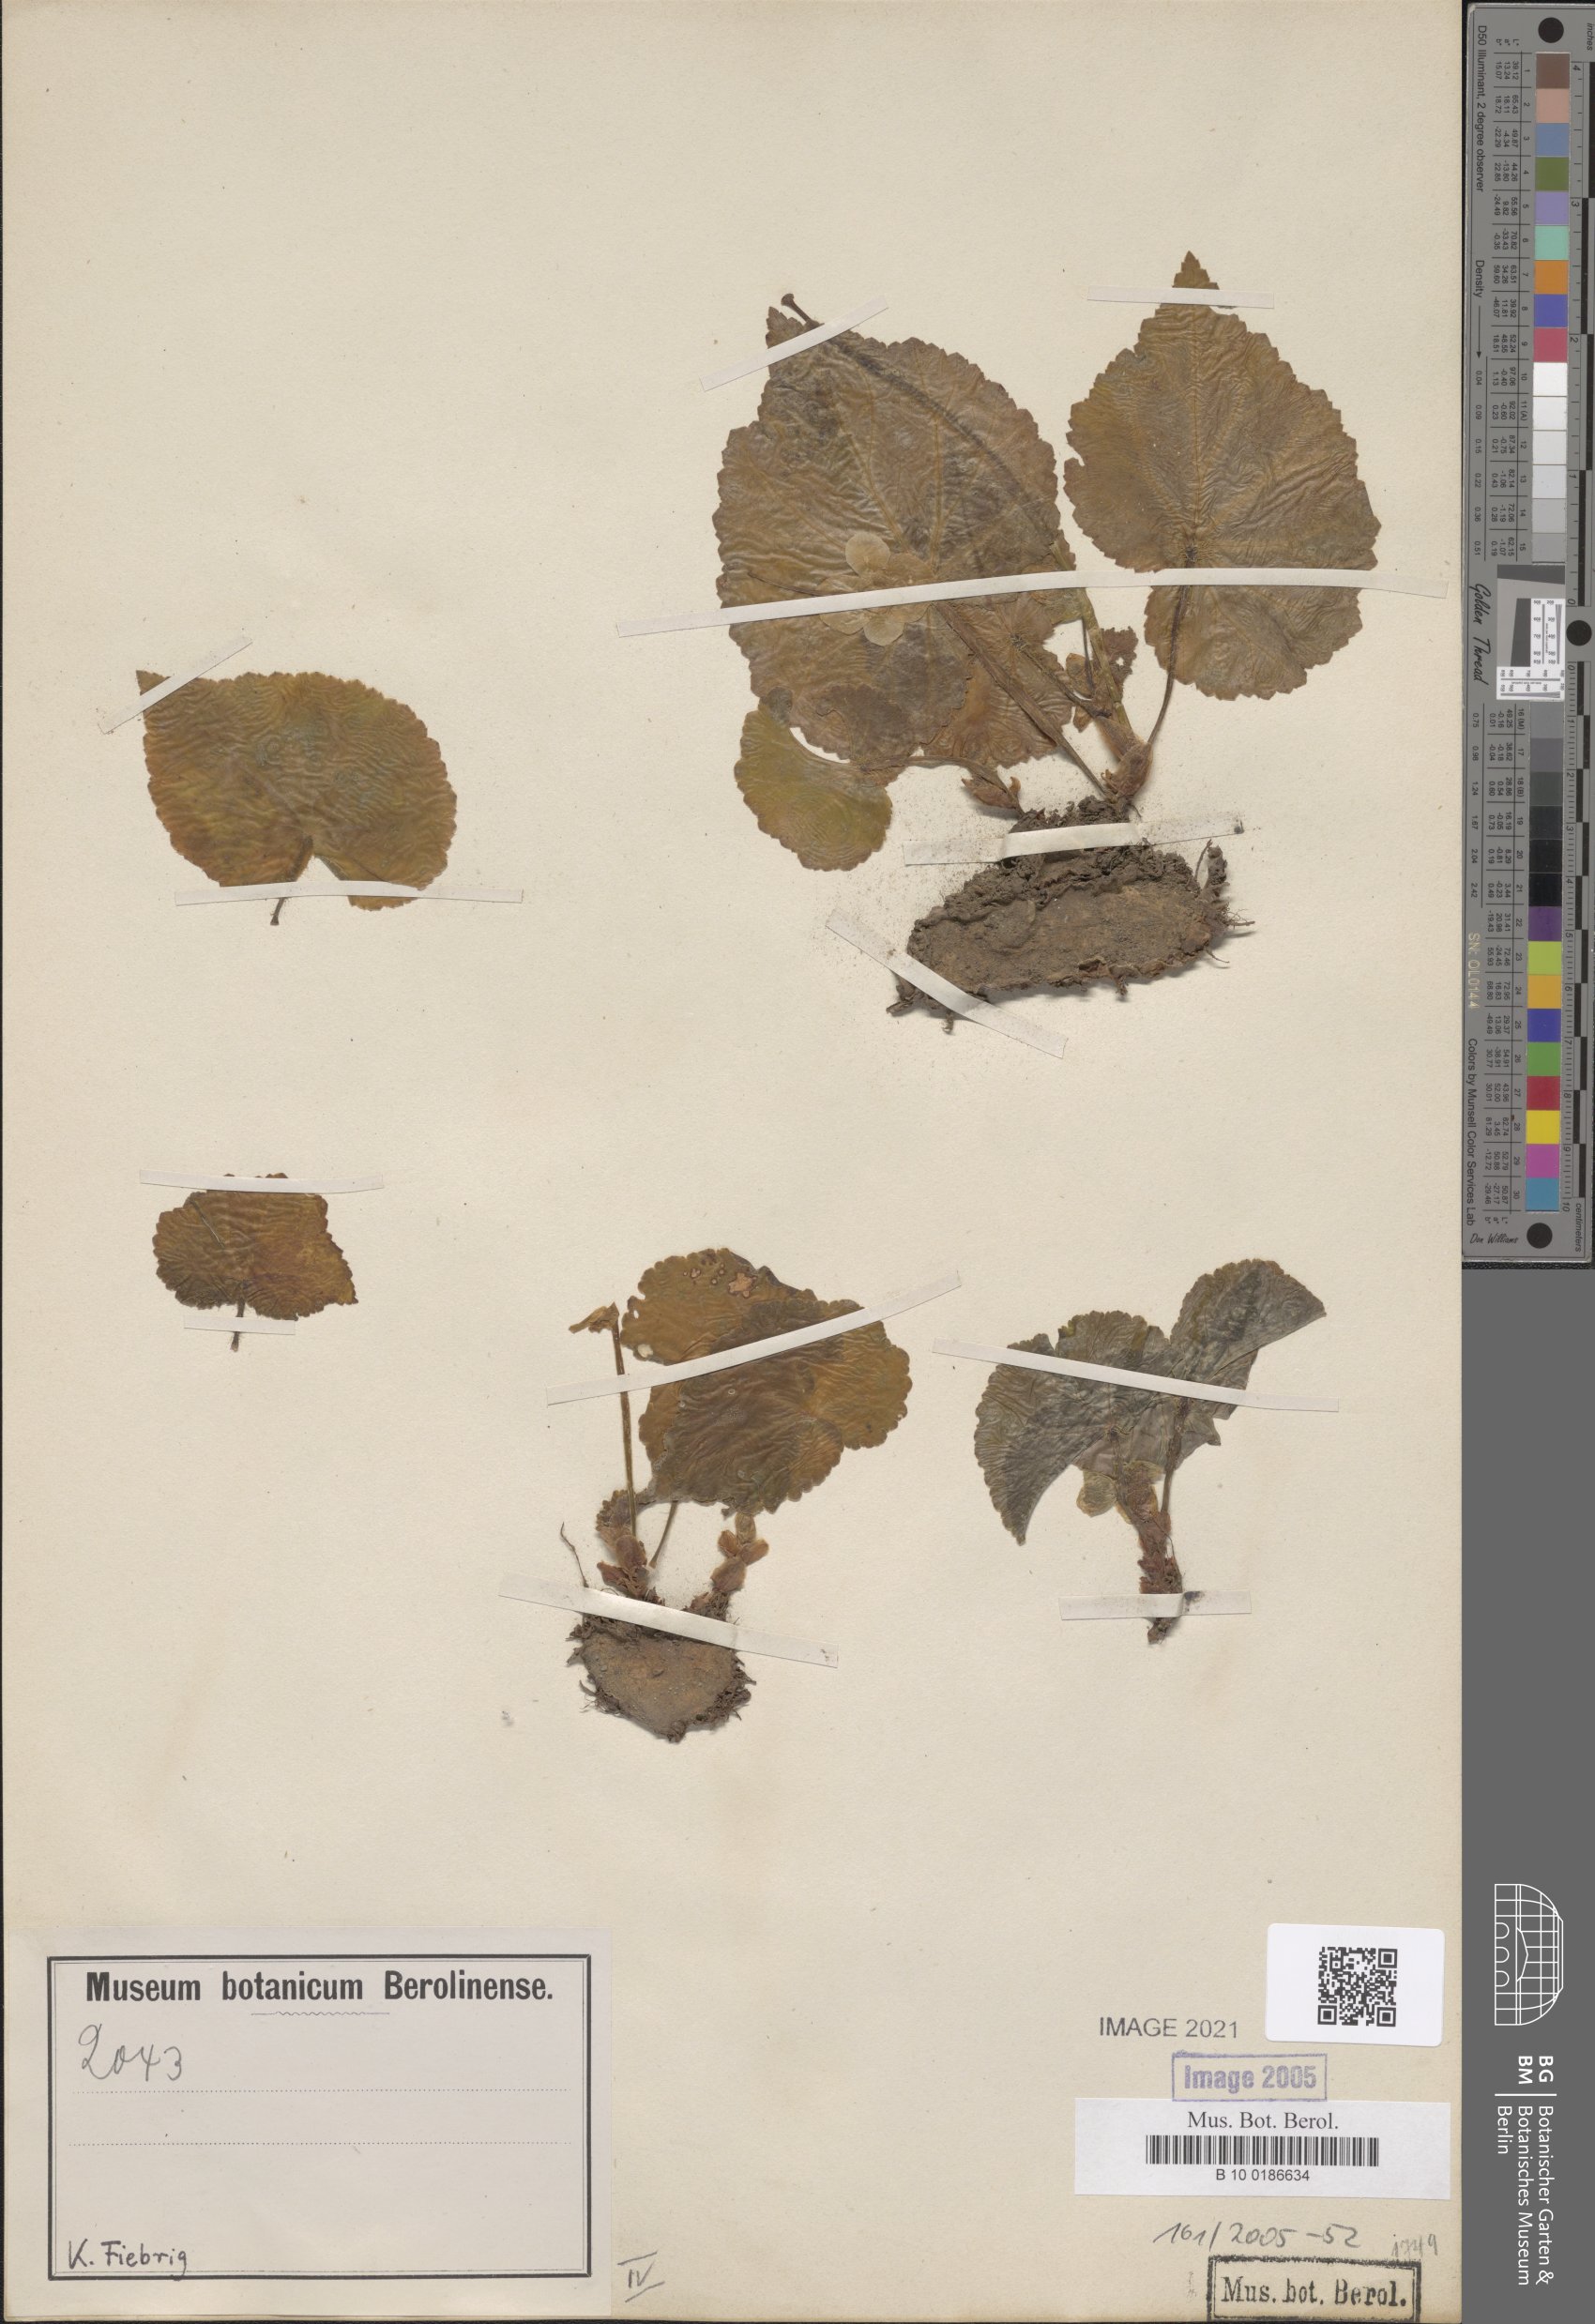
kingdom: Plantae
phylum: Tracheophyta
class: Magnoliopsida
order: Cucurbitales
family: Begoniaceae
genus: Begonia
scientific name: Begonia micranthera
